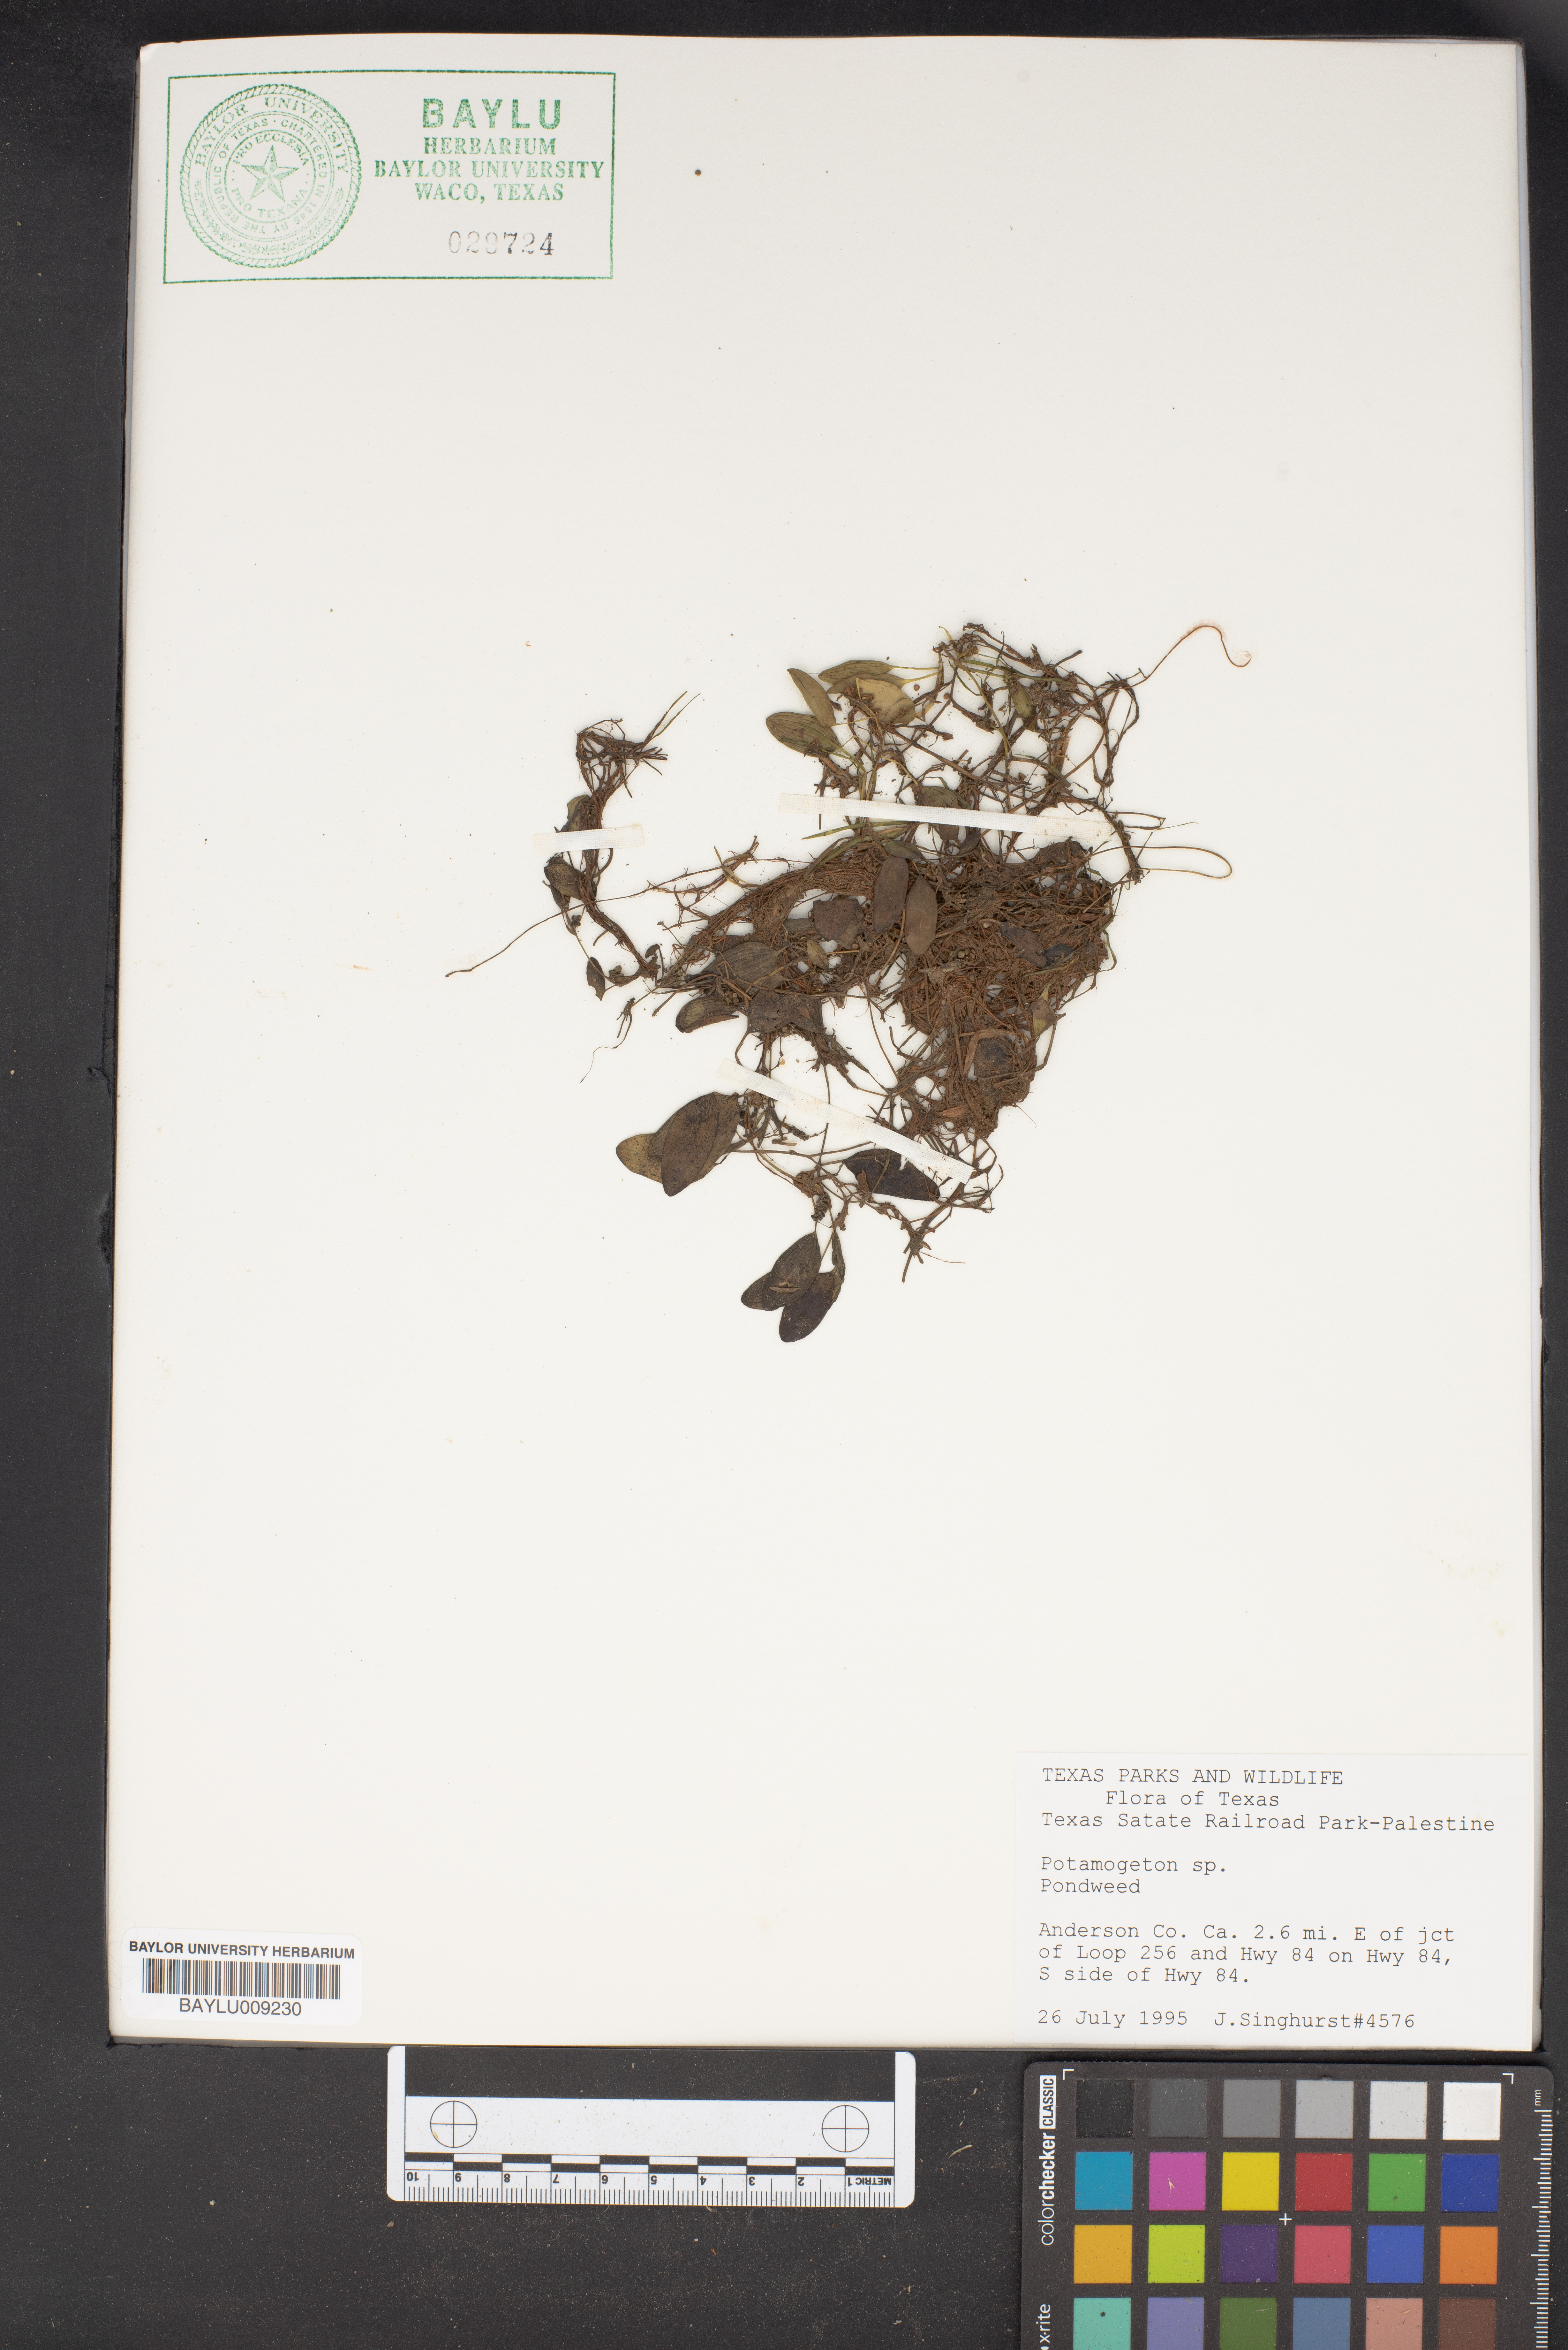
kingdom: Plantae
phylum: Tracheophyta
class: Liliopsida
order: Alismatales
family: Potamogetonaceae
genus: Potamogeton
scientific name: Potamogeton
